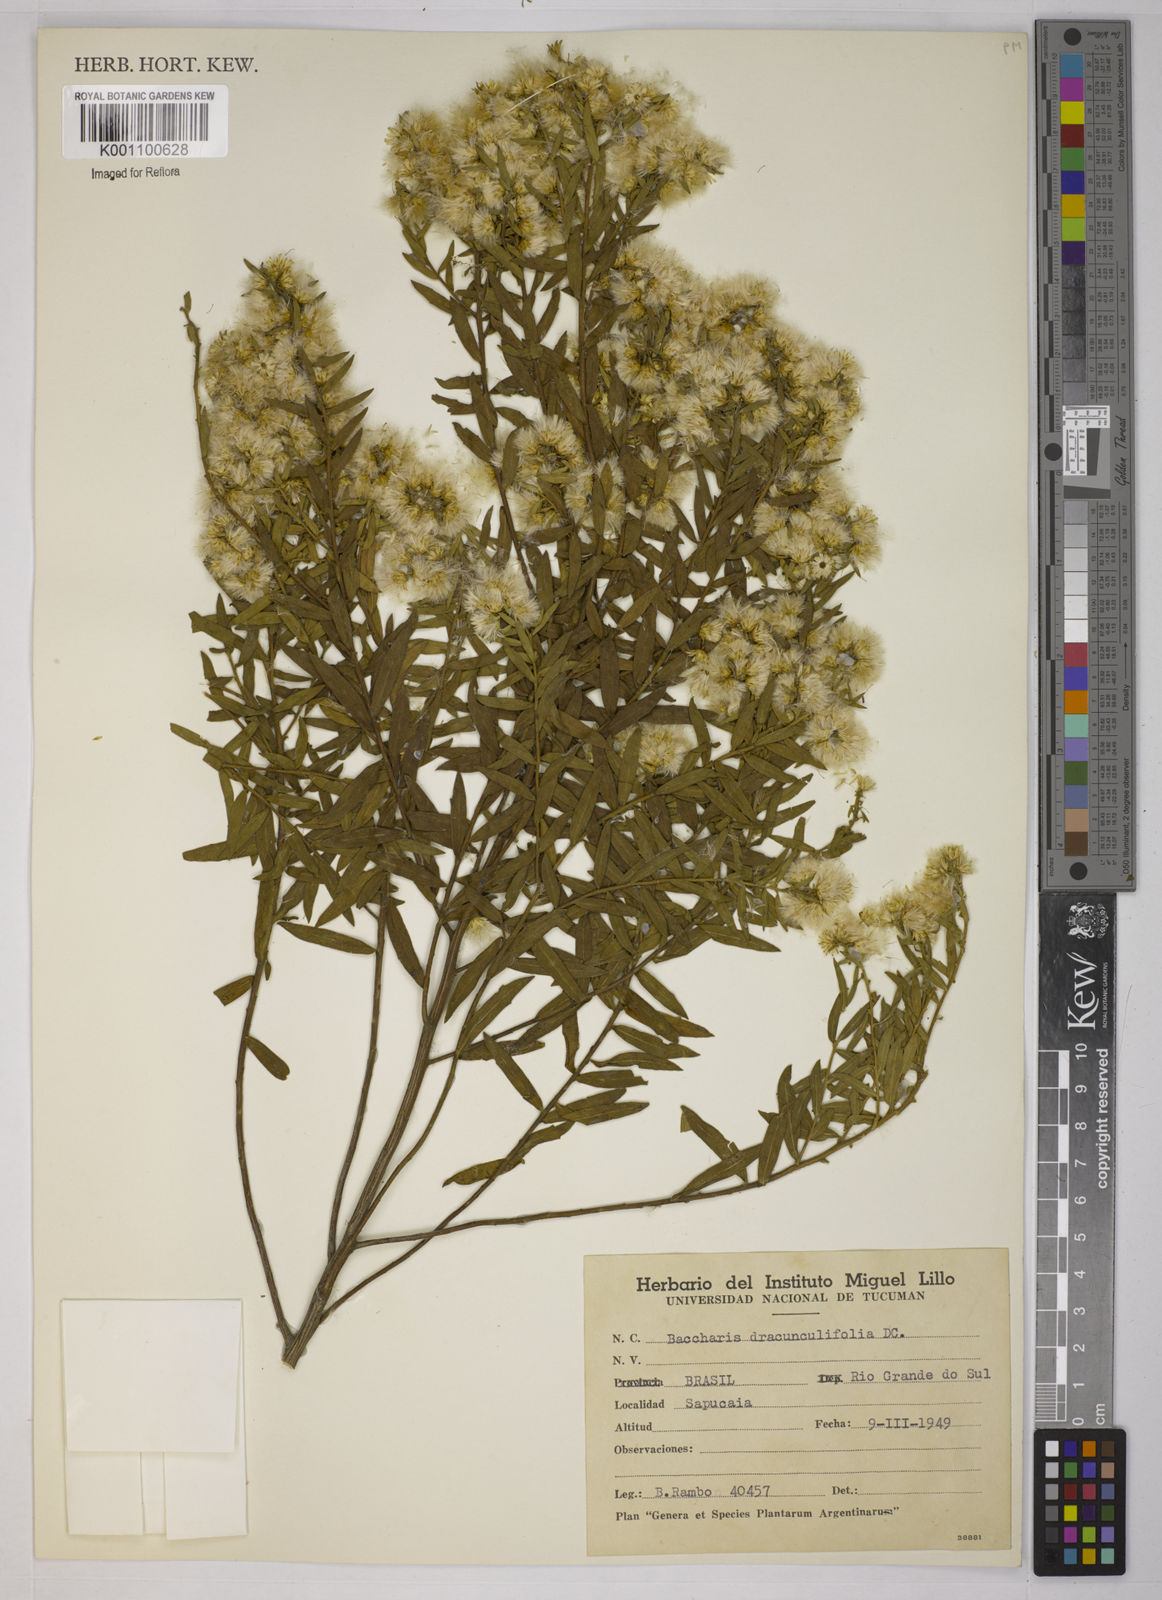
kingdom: Plantae
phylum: Tracheophyta
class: Magnoliopsida
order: Asterales
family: Asteraceae
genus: Baccharis
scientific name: Baccharis dracunculifolia
